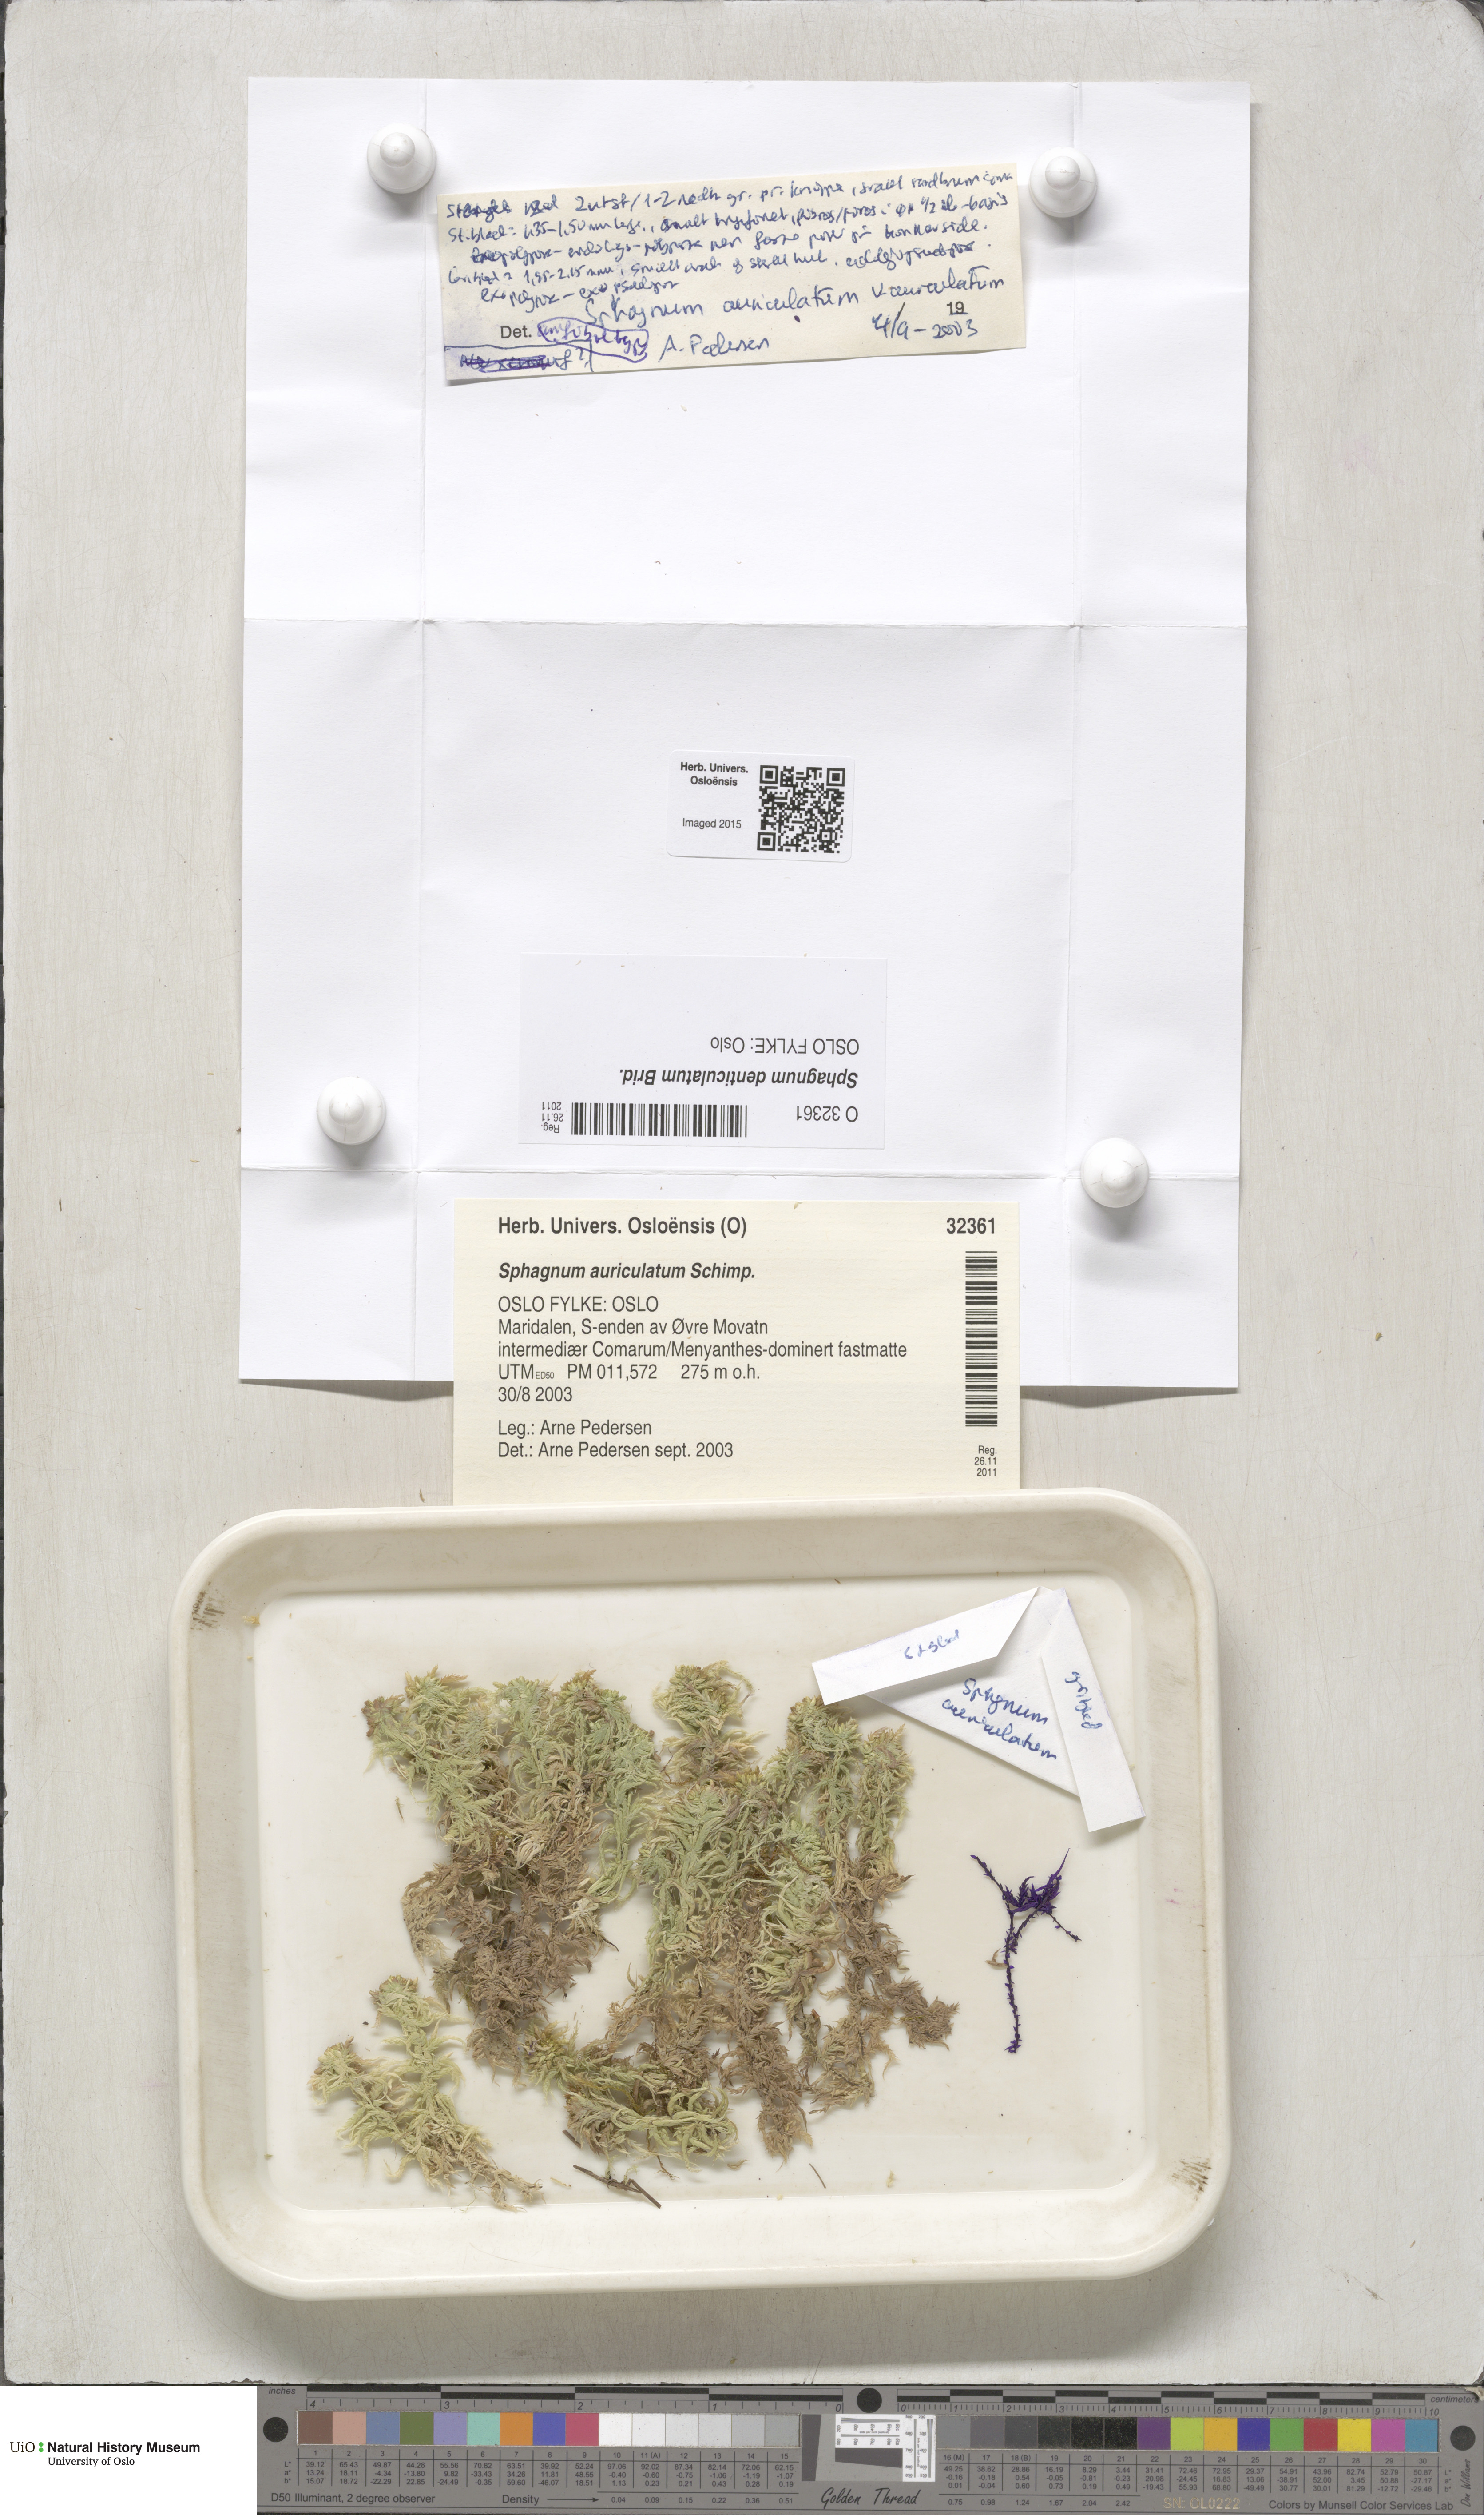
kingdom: Plantae
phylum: Bryophyta
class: Sphagnopsida
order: Sphagnales
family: Sphagnaceae
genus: Sphagnum
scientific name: Sphagnum denticulatum
